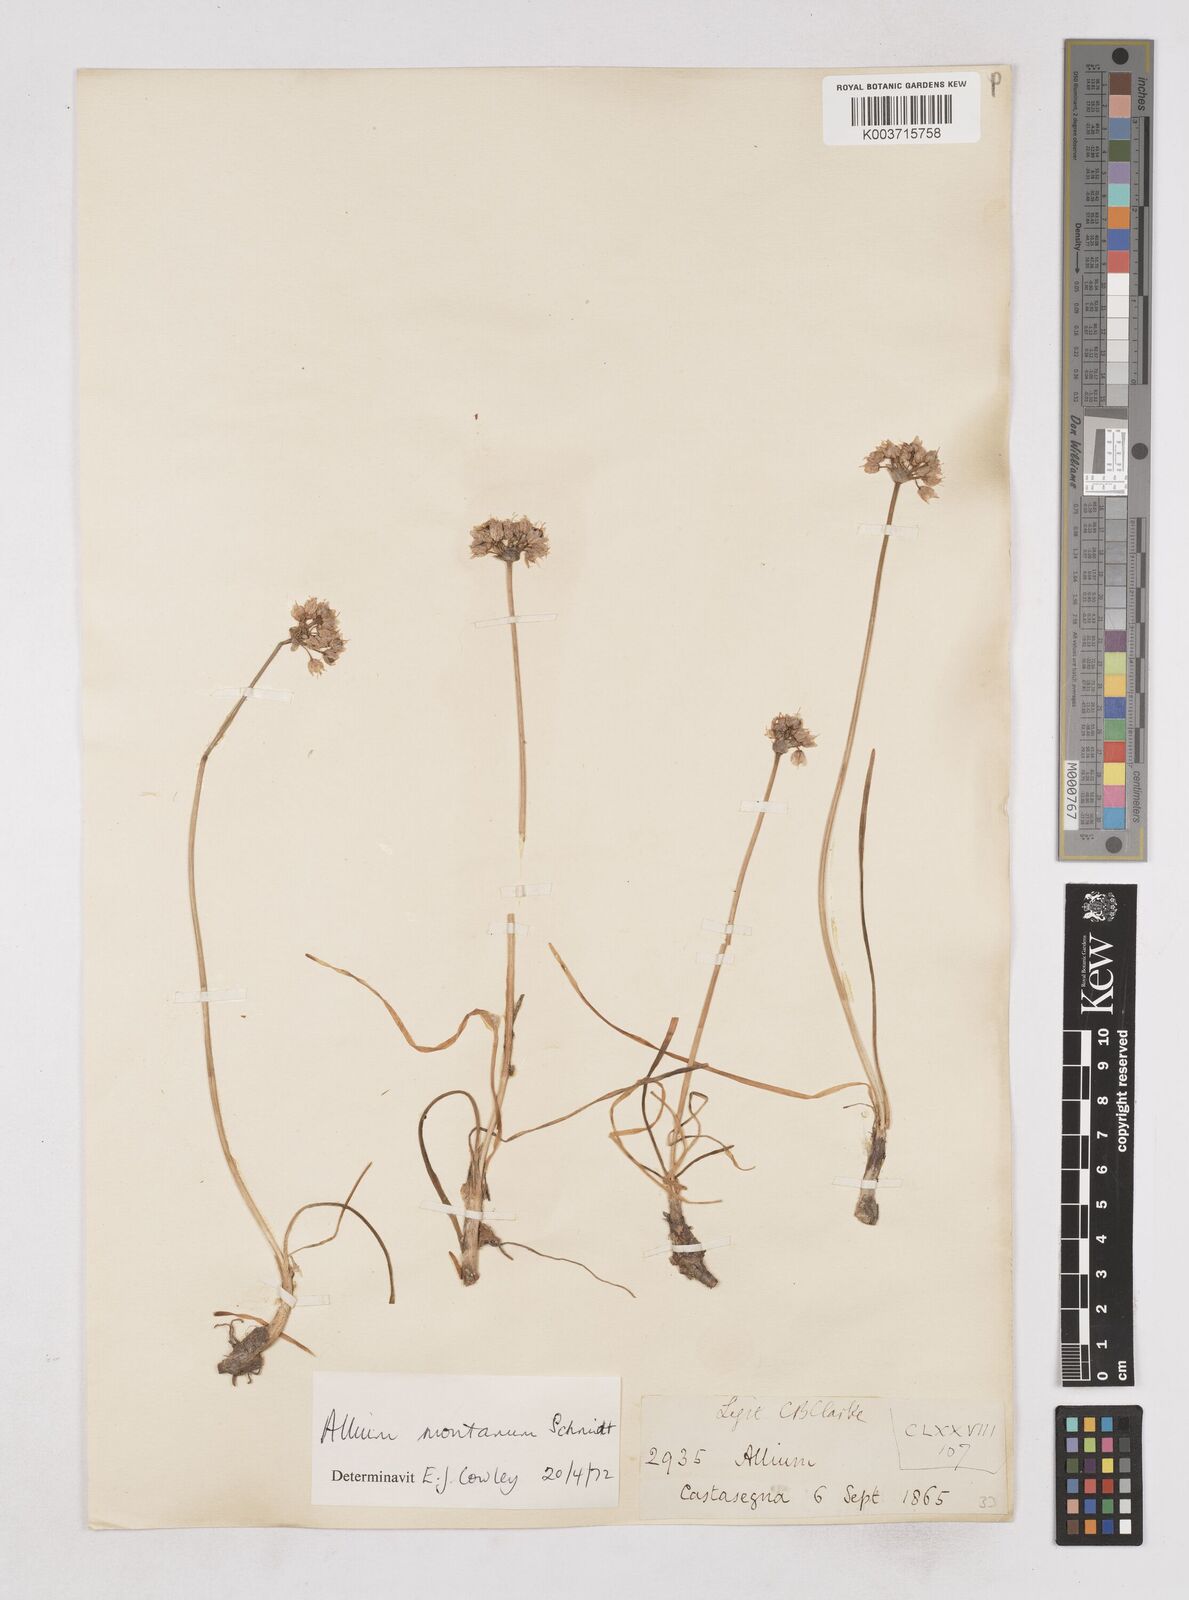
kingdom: Plantae
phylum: Tracheophyta
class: Liliopsida
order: Asparagales
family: Amaryllidaceae
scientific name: Amaryllidaceae
